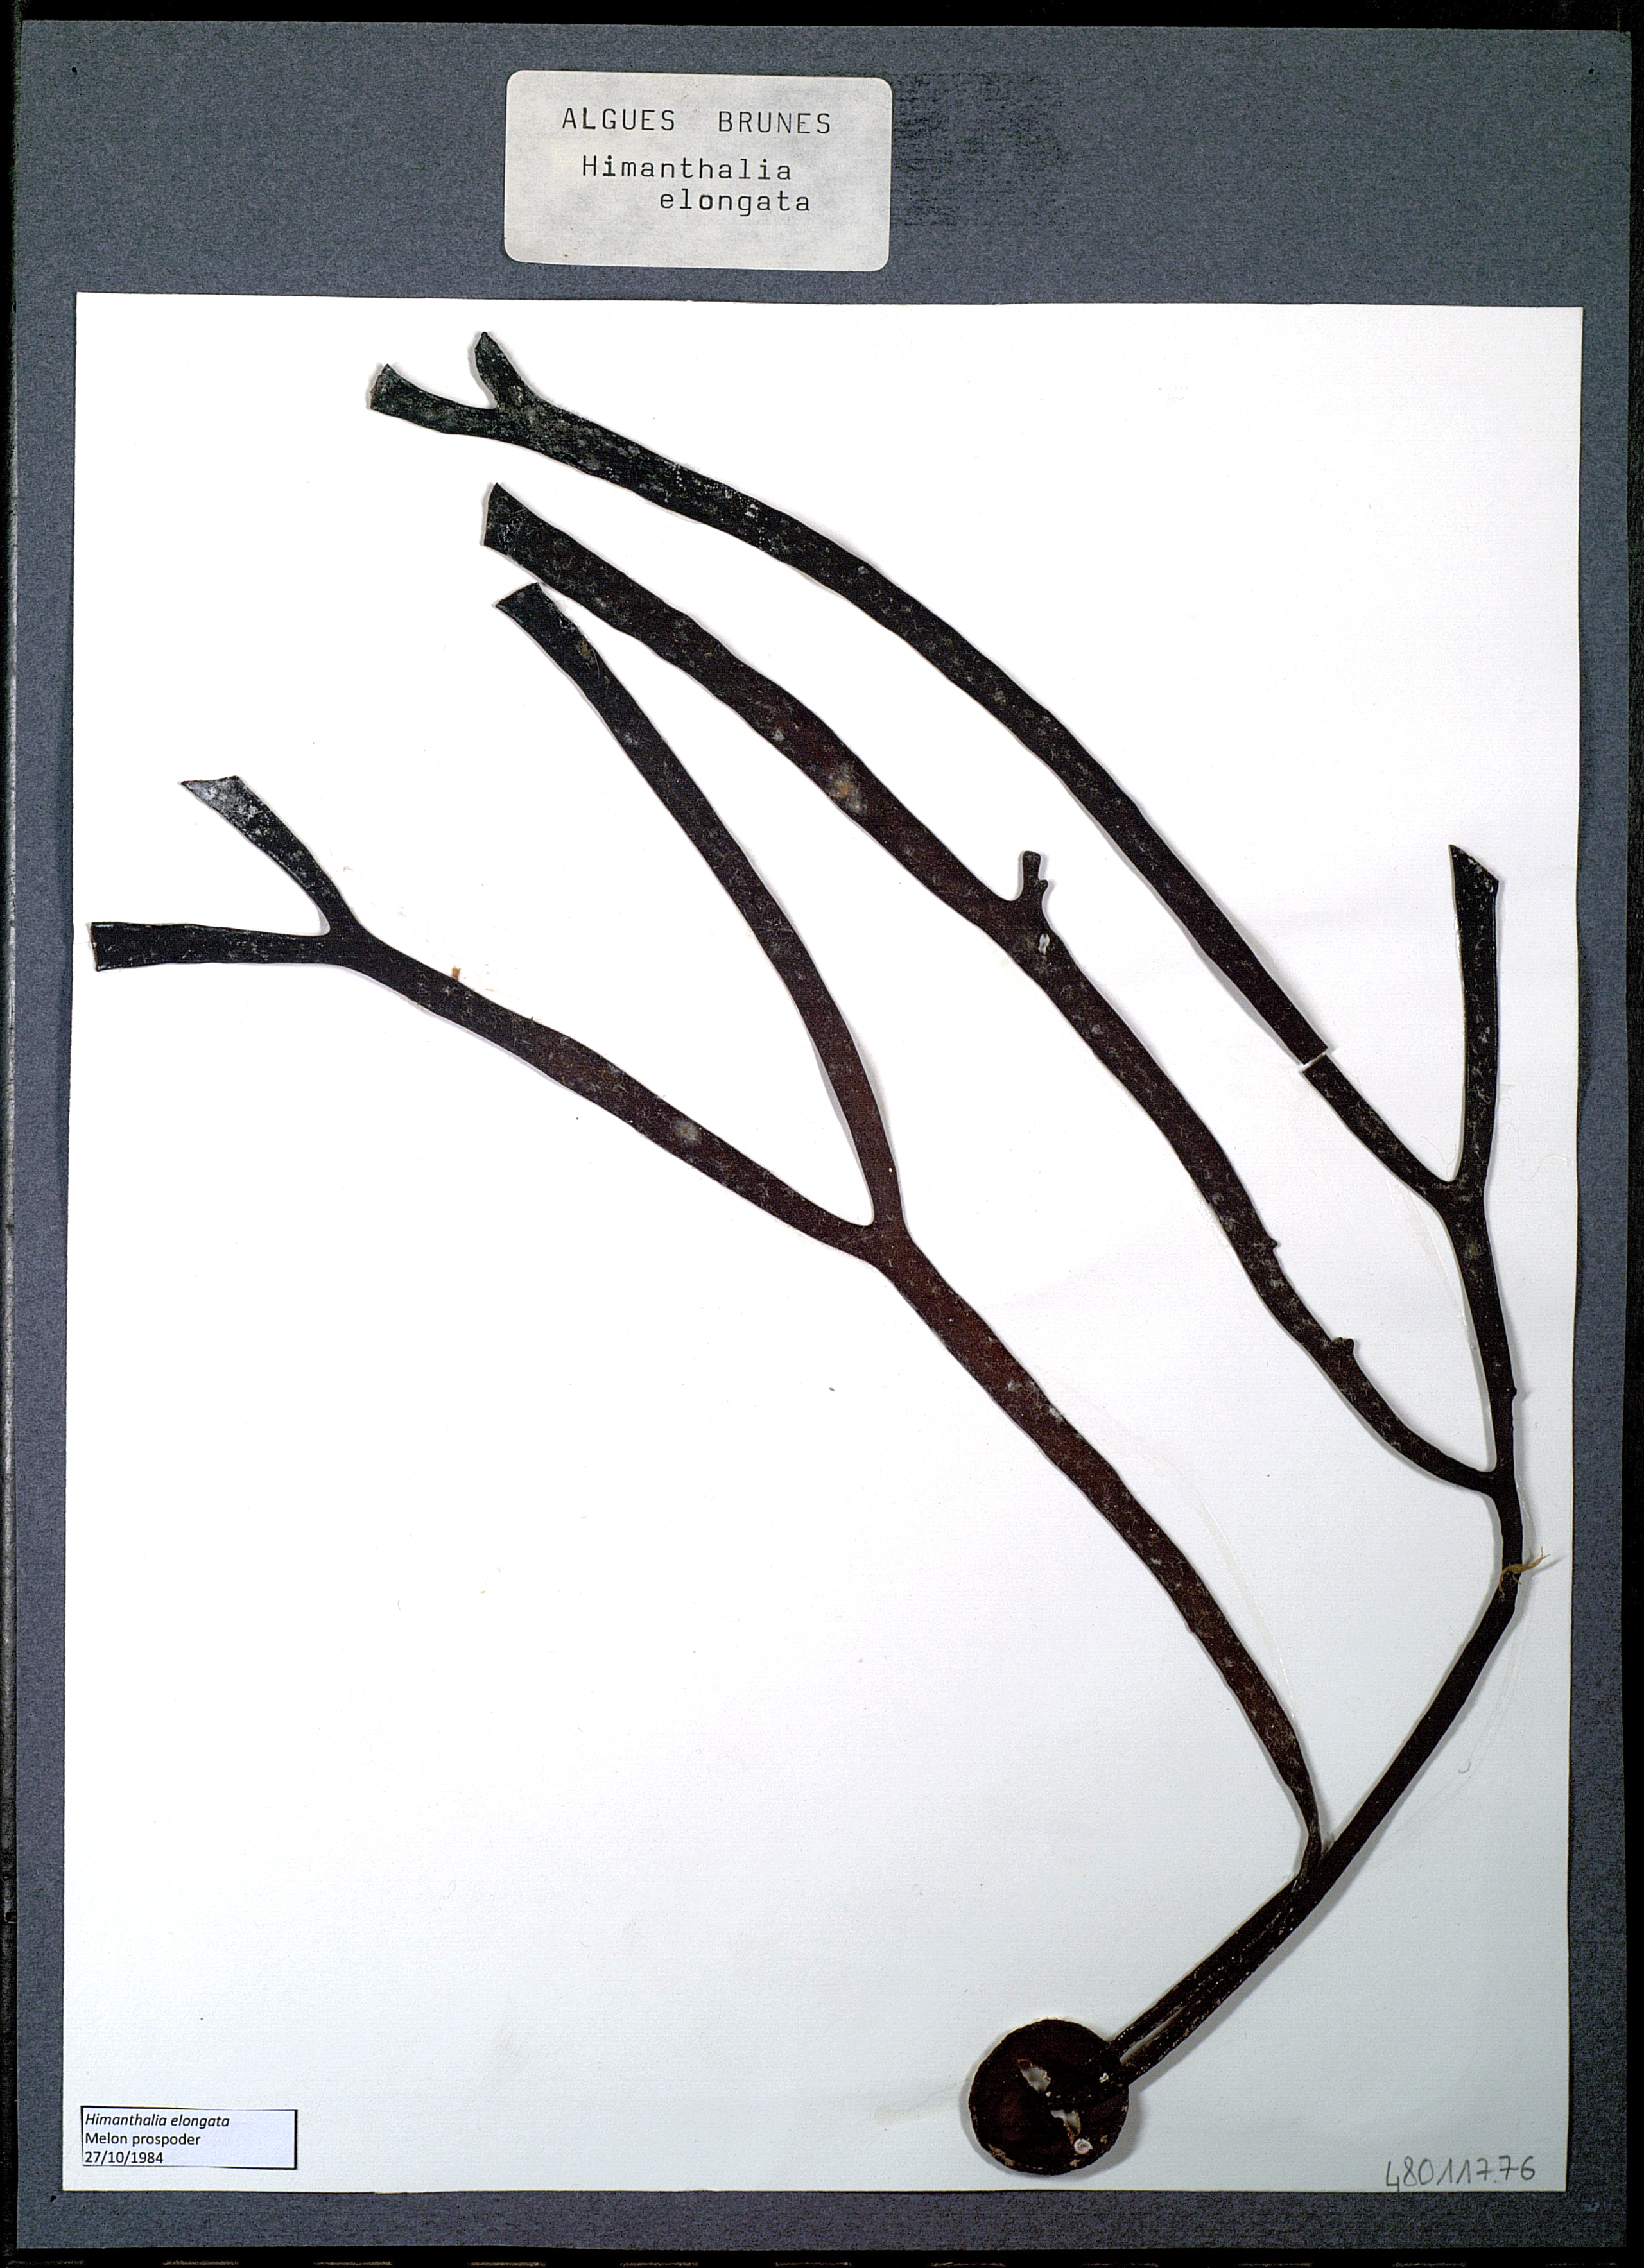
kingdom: Chromista
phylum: Ochrophyta
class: Phaeophyceae
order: Fucales
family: Himanthaliaceae
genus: Himanthalia
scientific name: Himanthalia elongata
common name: Sea-thong
